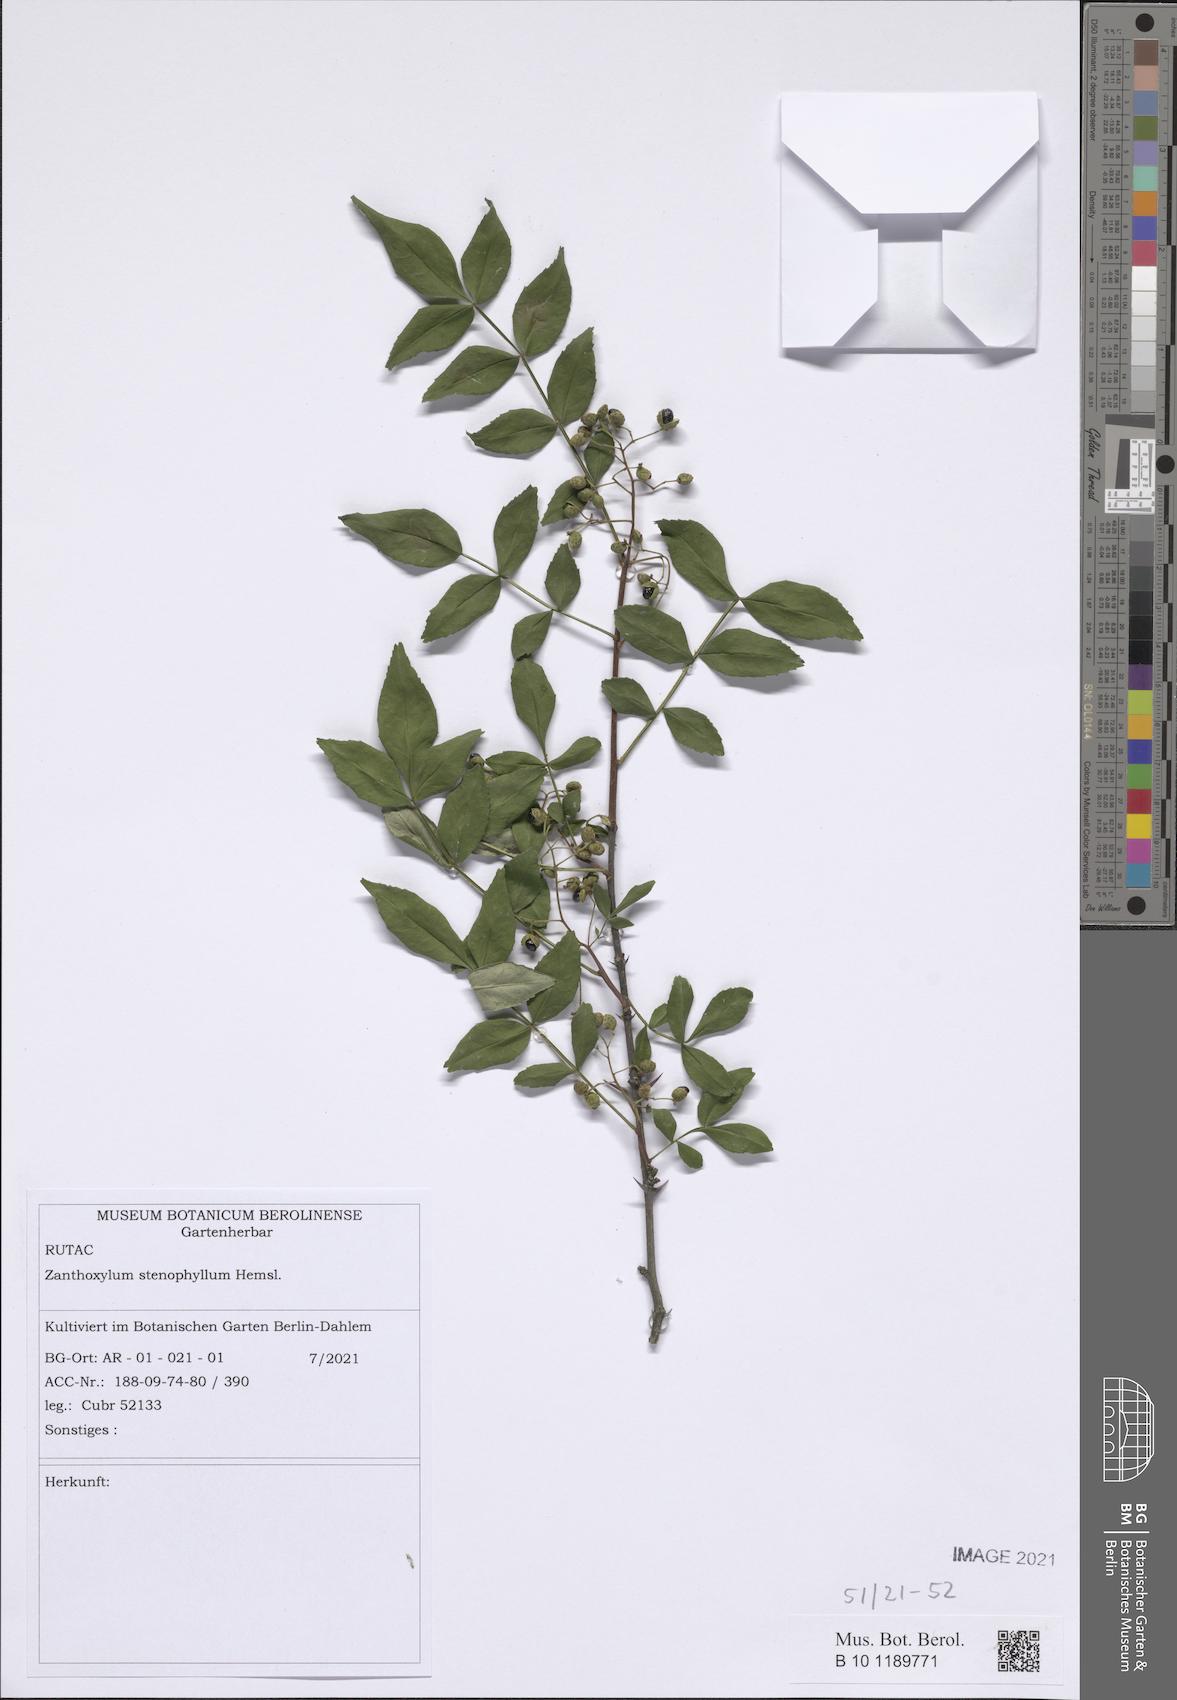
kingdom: Plantae
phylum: Tracheophyta
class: Magnoliopsida
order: Sapindales
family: Rutaceae
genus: Zanthoxylum
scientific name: Zanthoxylum stenophyllum
